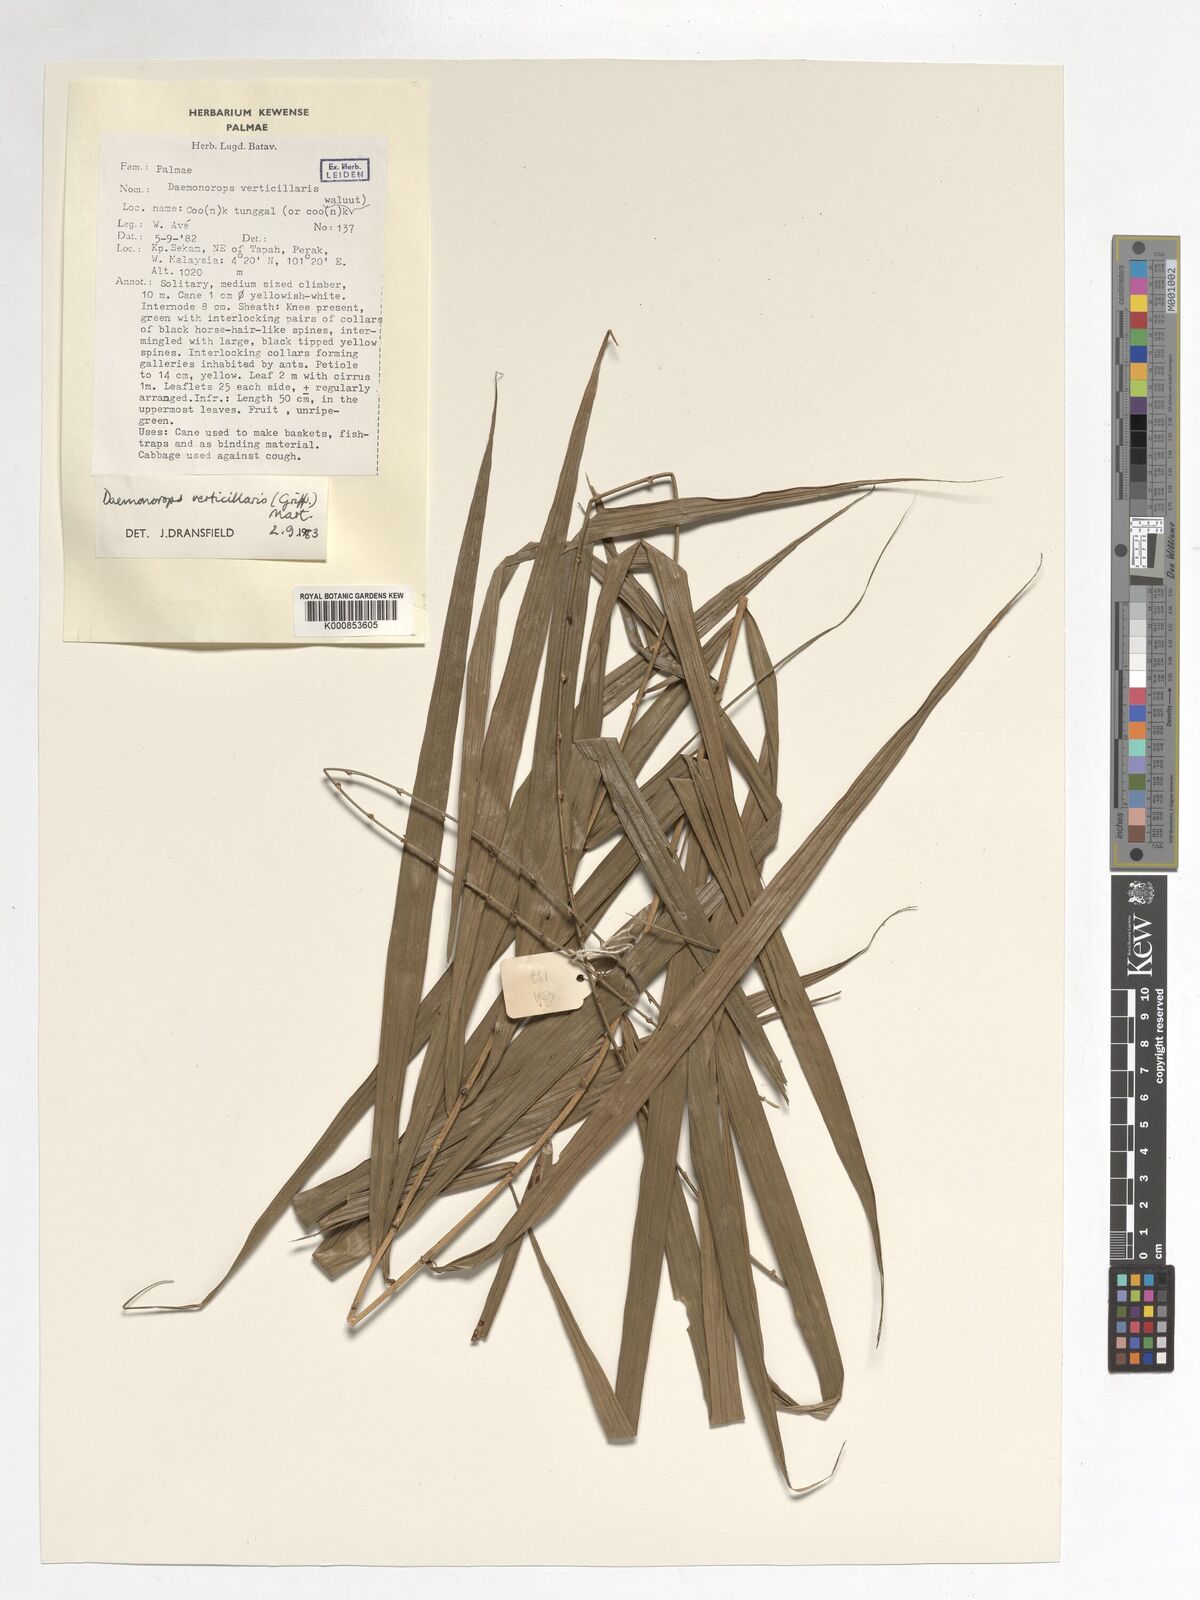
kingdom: Plantae
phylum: Tracheophyta
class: Liliopsida
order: Arecales
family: Arecaceae
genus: Calamus
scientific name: Calamus verticillaris
